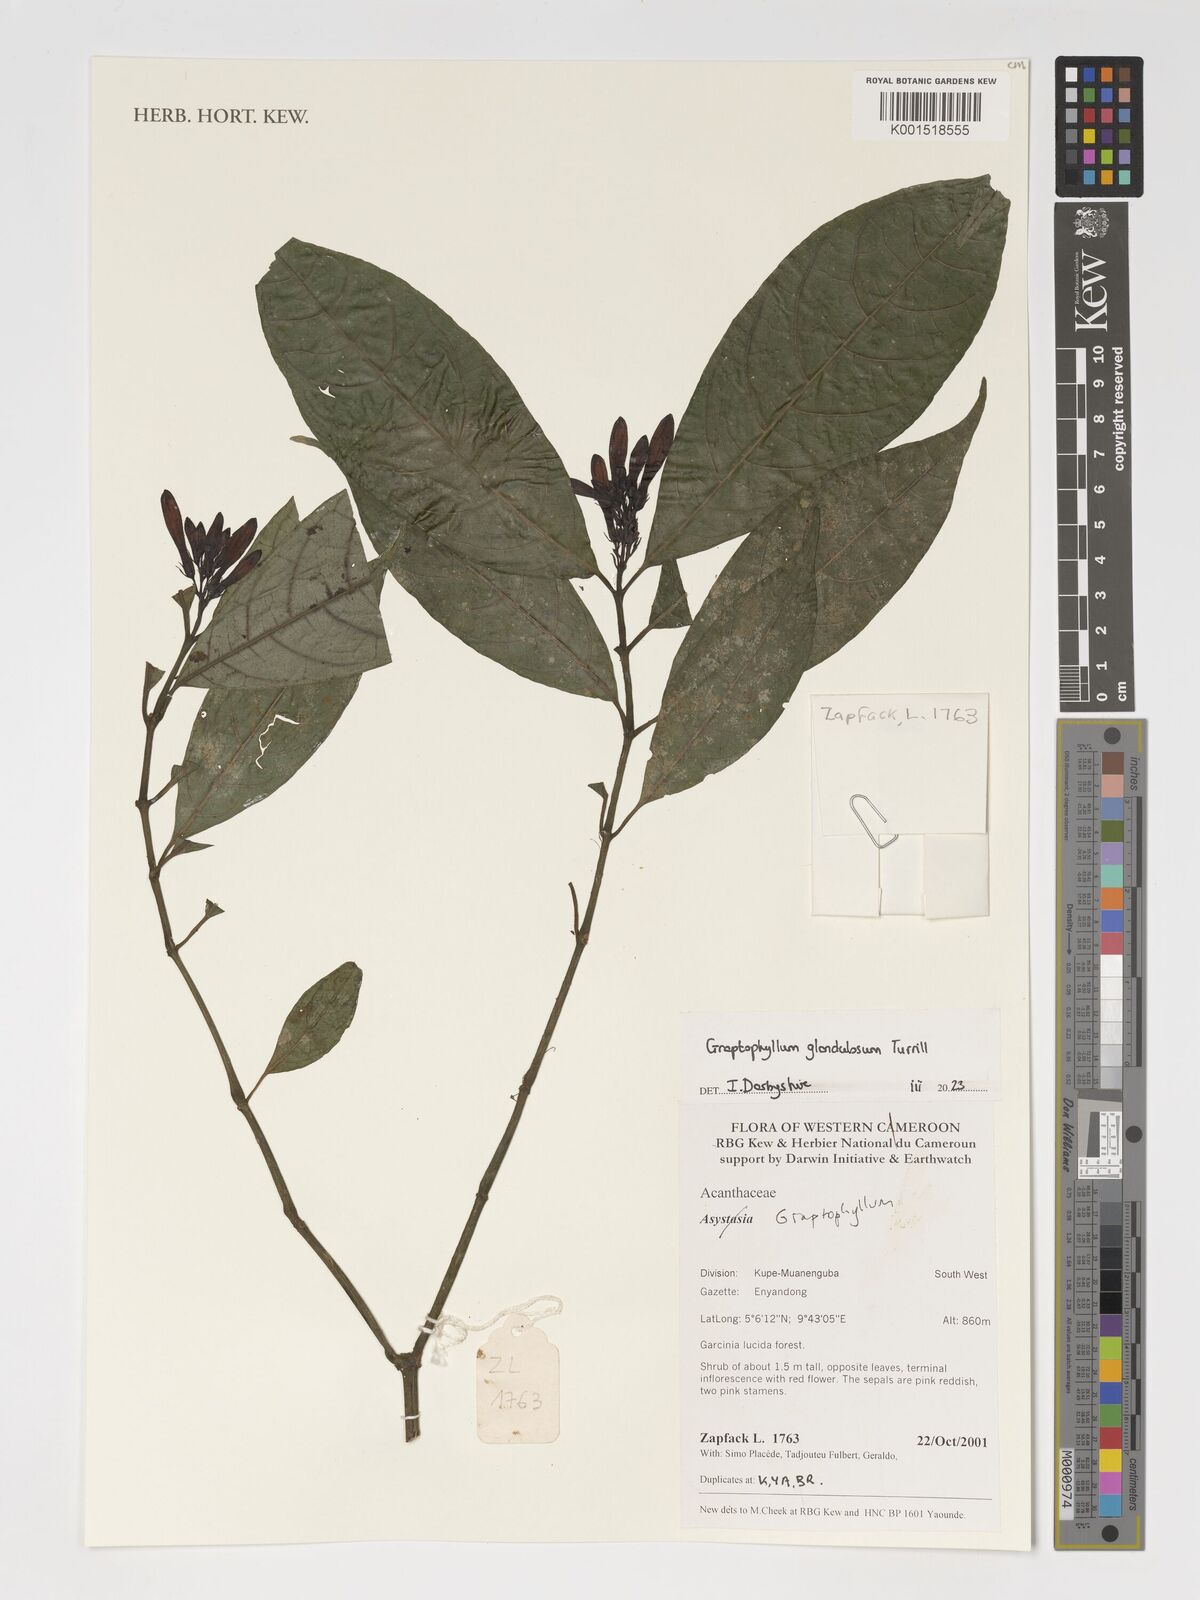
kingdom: Plantae
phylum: Tracheophyta
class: Magnoliopsida
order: Lamiales
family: Acanthaceae
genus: Graptophyllum
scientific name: Graptophyllum glandulosum
